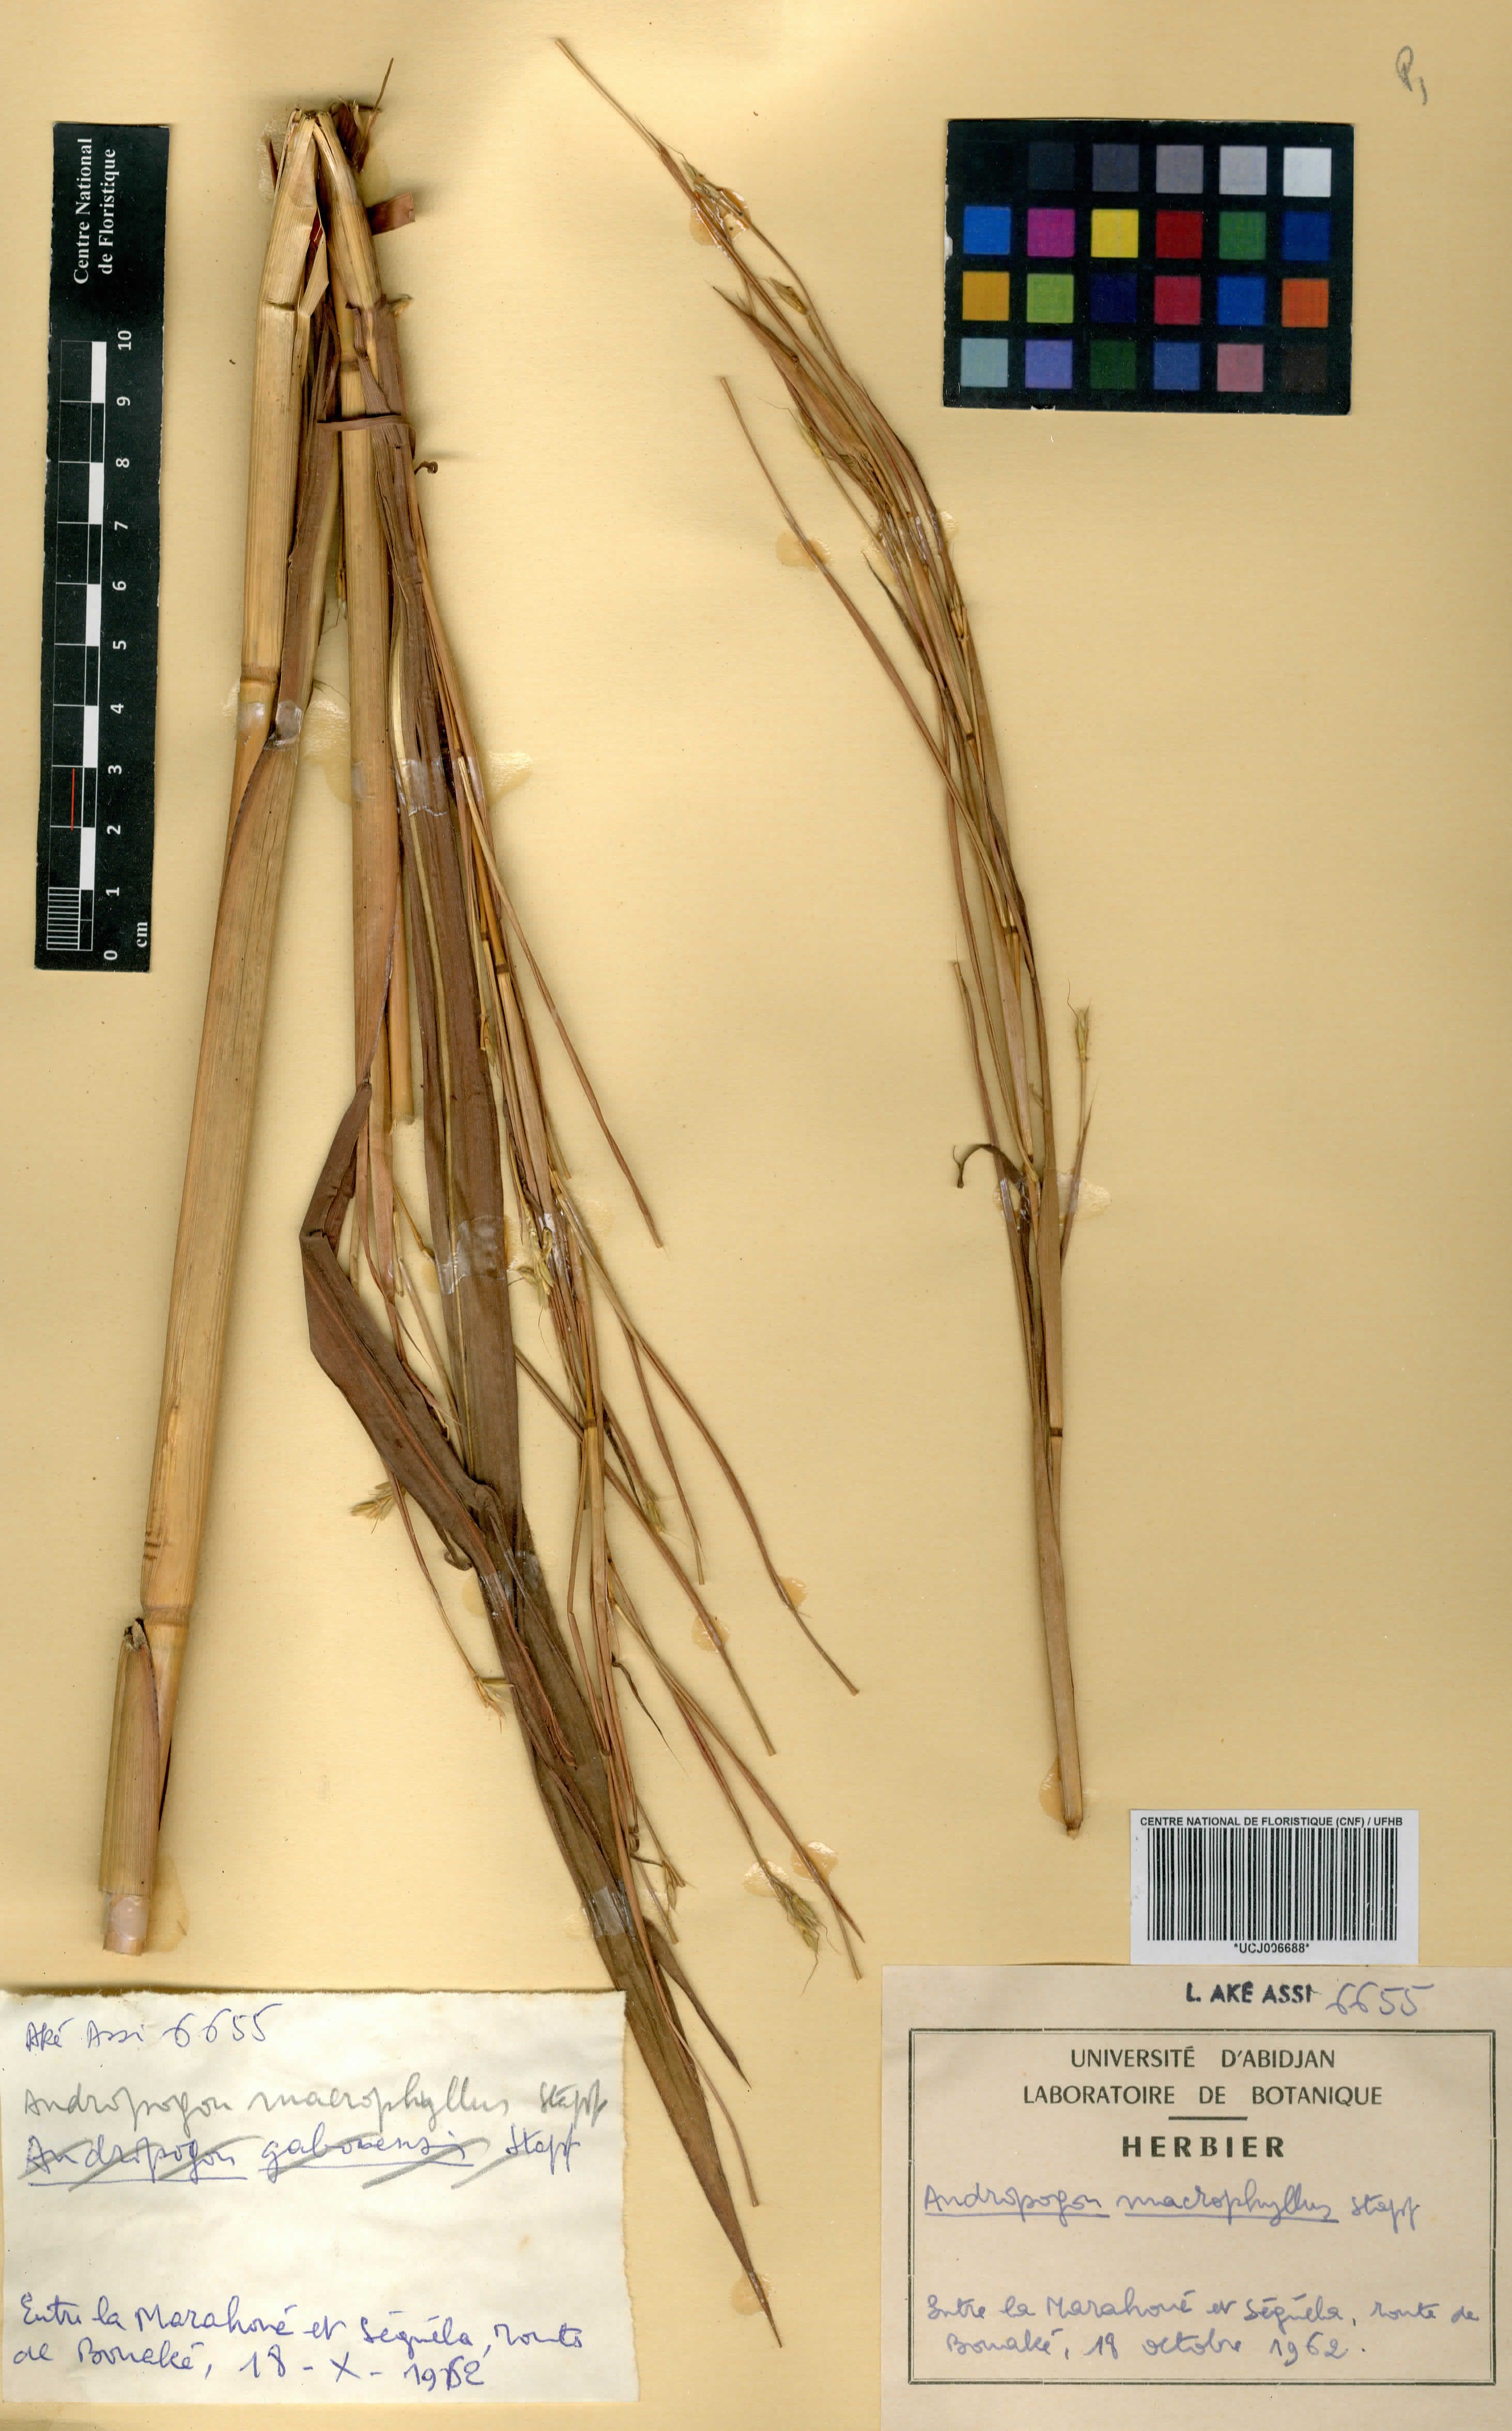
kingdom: Plantae
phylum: Tracheophyta
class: Liliopsida
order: Poales
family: Poaceae
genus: Andropogon
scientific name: Andropogon macrophyllus
